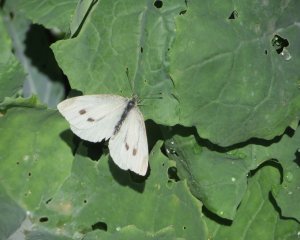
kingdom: Animalia
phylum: Arthropoda
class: Insecta
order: Lepidoptera
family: Pieridae
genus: Pieris
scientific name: Pieris rapae
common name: Cabbage White
